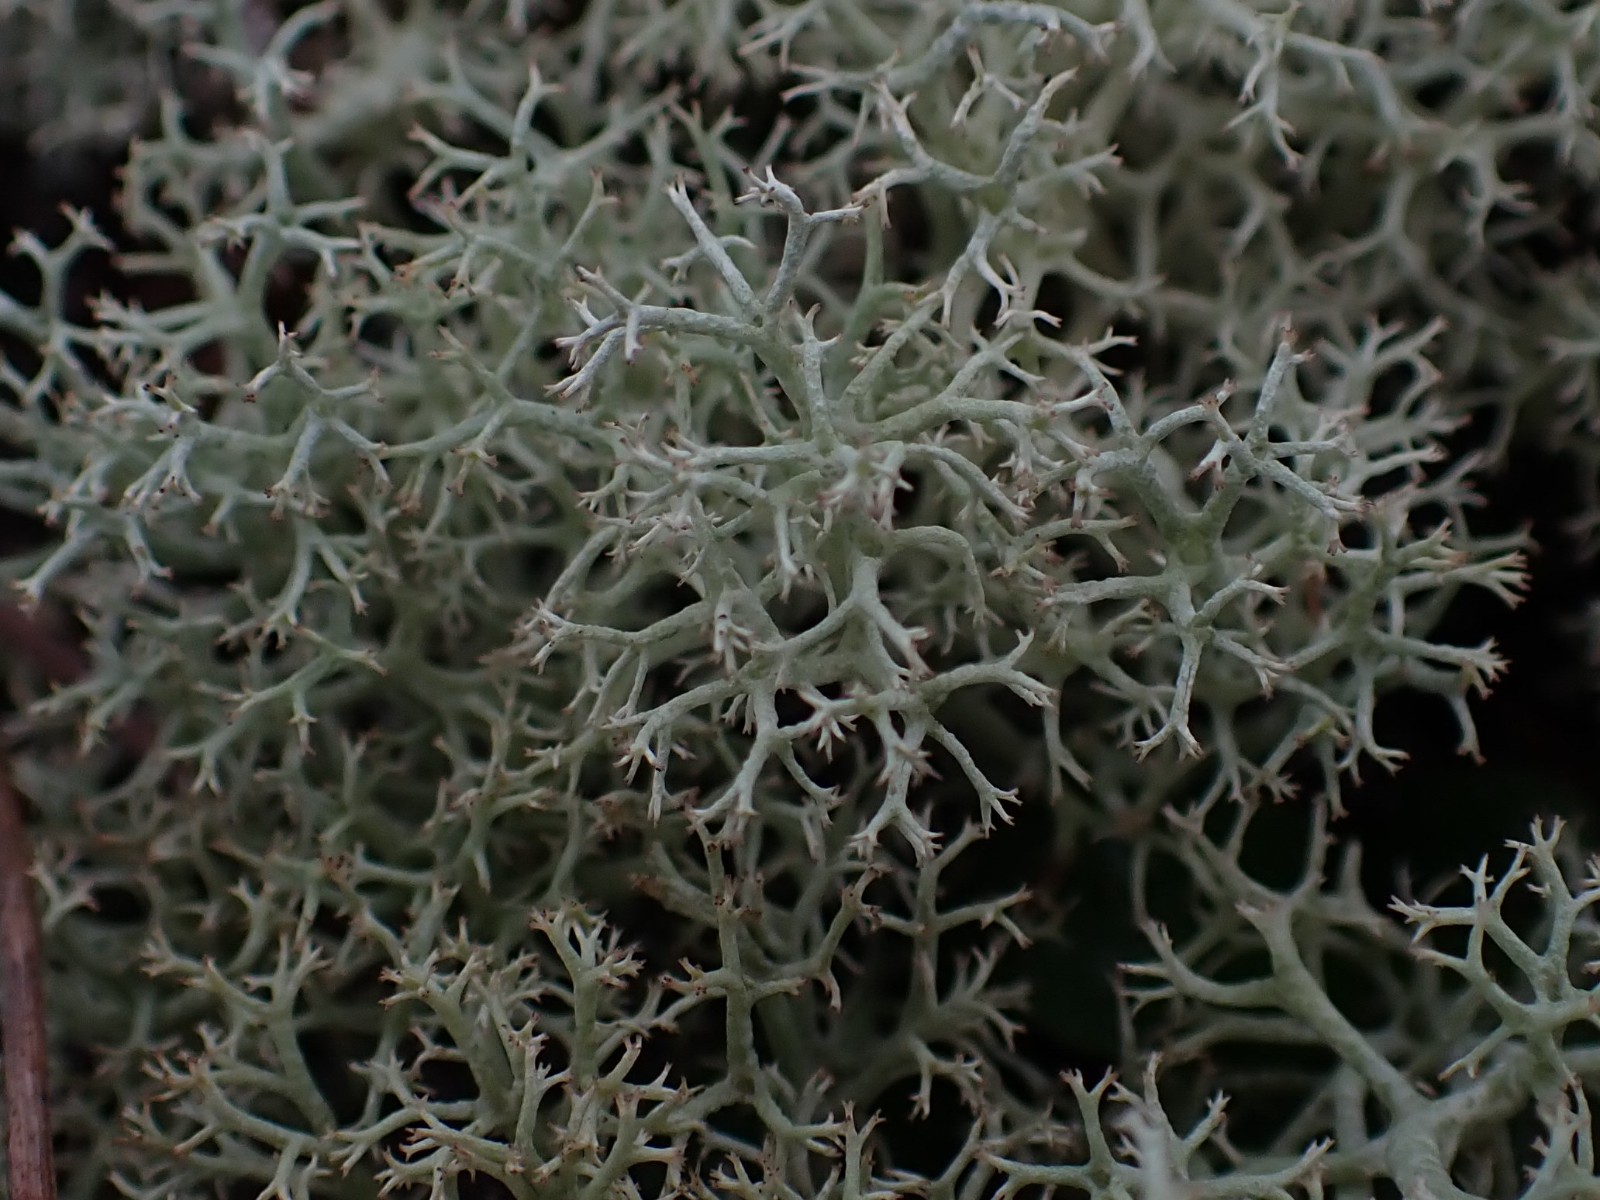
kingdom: Fungi
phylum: Ascomycota
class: Lecanoromycetes
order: Lecanorales
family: Cladoniaceae
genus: Cladonia
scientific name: Cladonia portentosa
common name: hede-rensdyrlav
